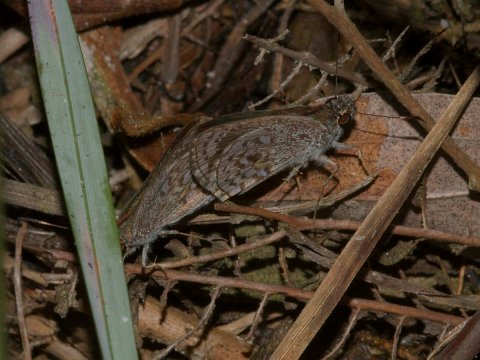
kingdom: Animalia
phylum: Arthropoda
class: Insecta
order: Lepidoptera
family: Hesperiidae
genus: Artines
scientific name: Artines aquilina
